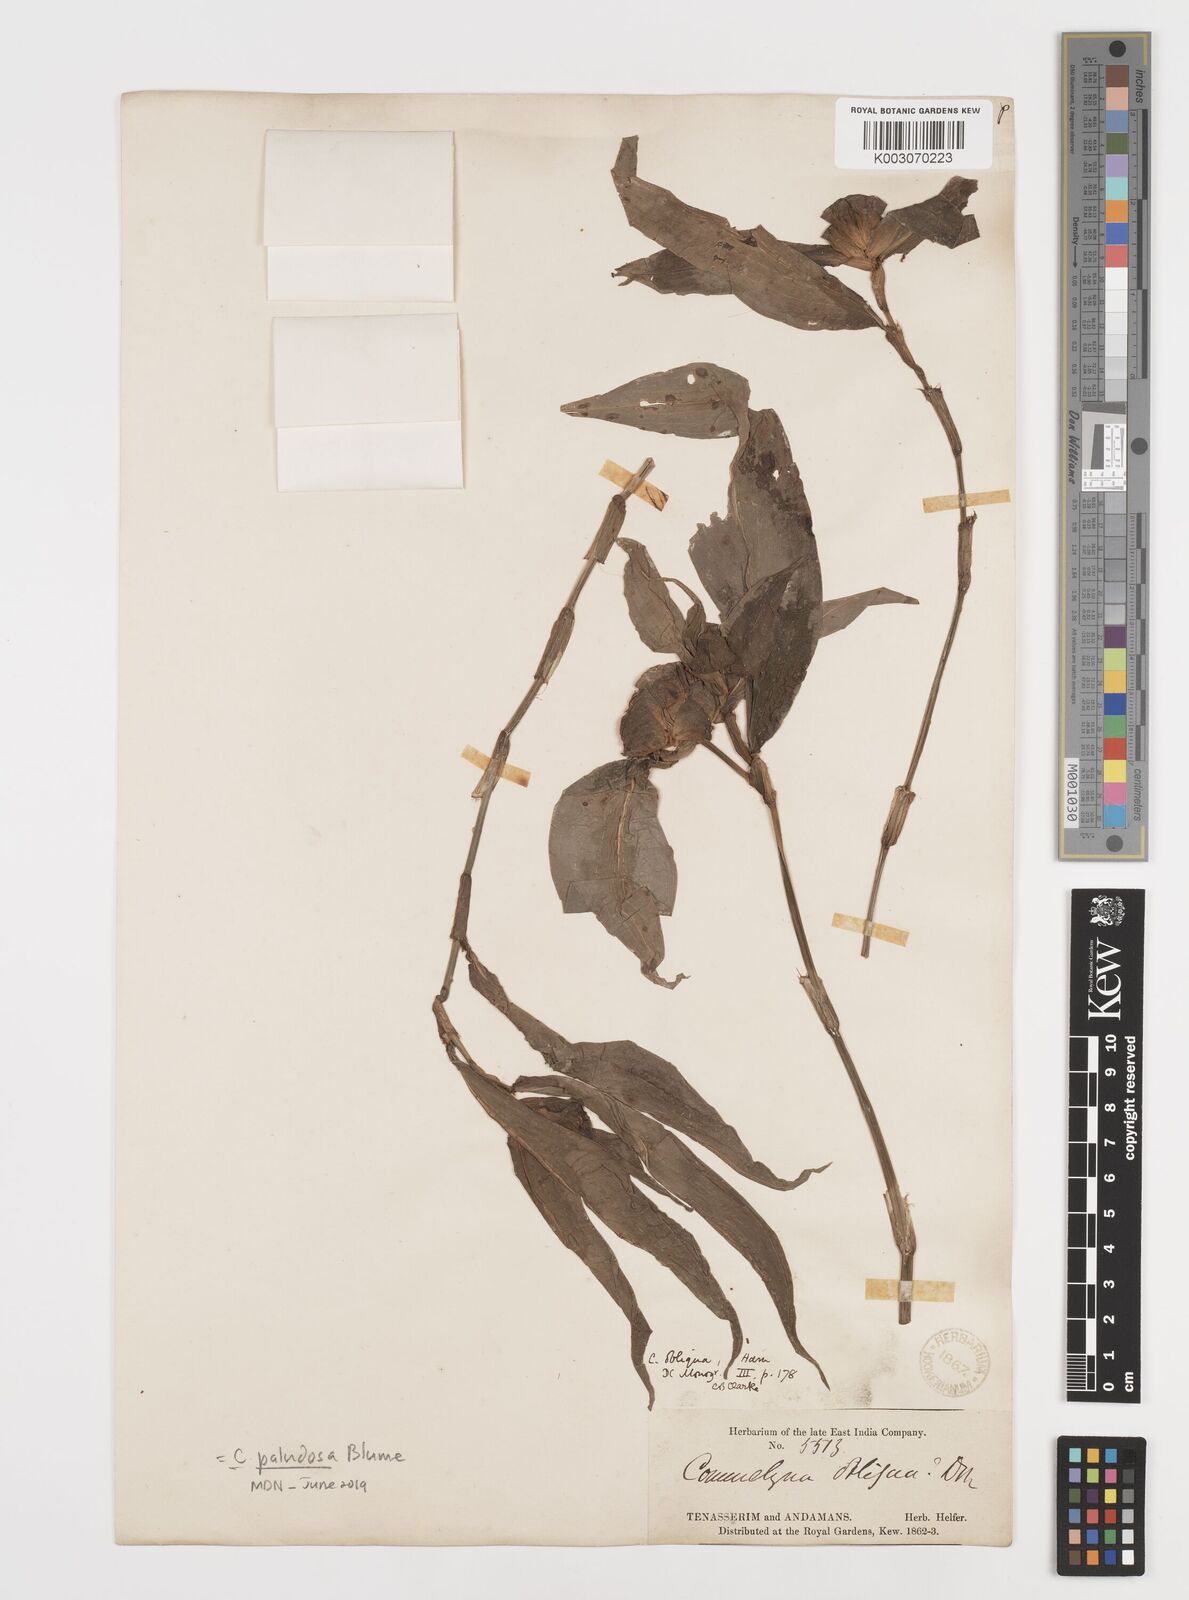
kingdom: Plantae
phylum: Tracheophyta
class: Liliopsida
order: Commelinales
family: Commelinaceae
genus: Commelina
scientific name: Commelina paludosa
